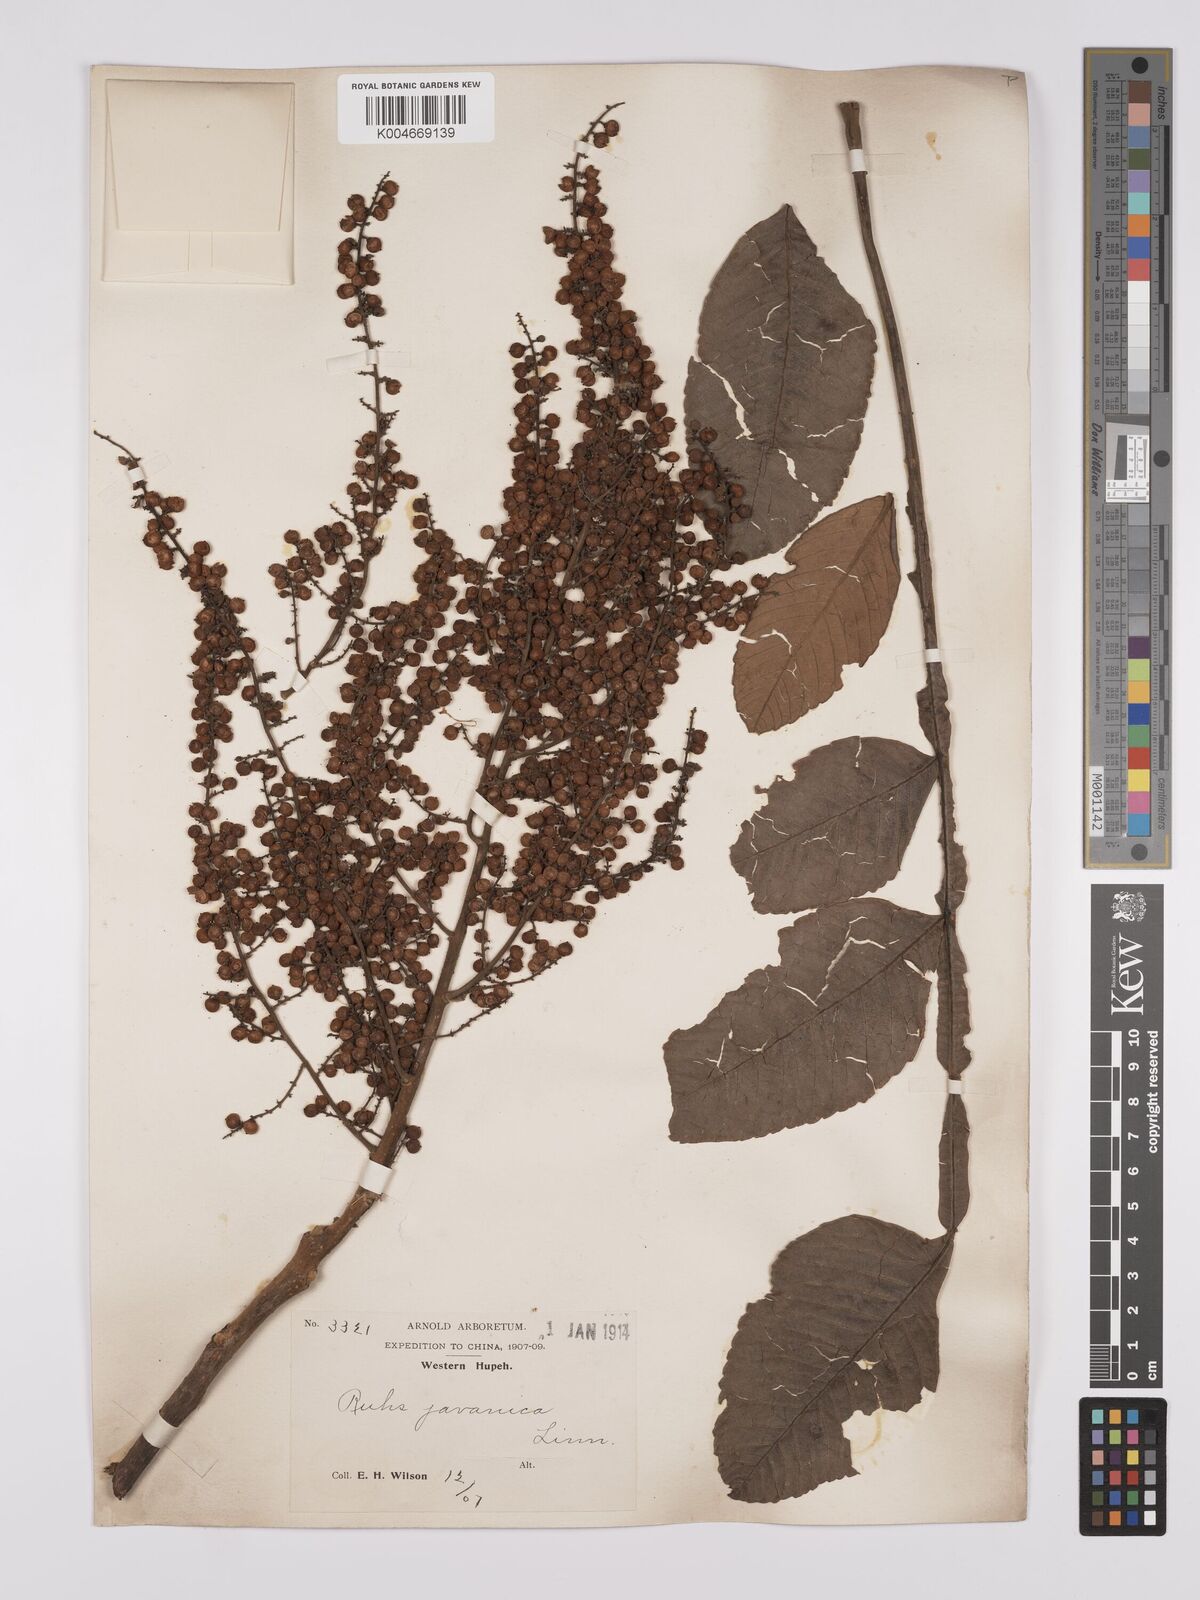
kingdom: Plantae
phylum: Tracheophyta
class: Magnoliopsida
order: Sapindales
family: Simaroubaceae
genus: Brucea
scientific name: Brucea javanica
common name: Macassar kernels
